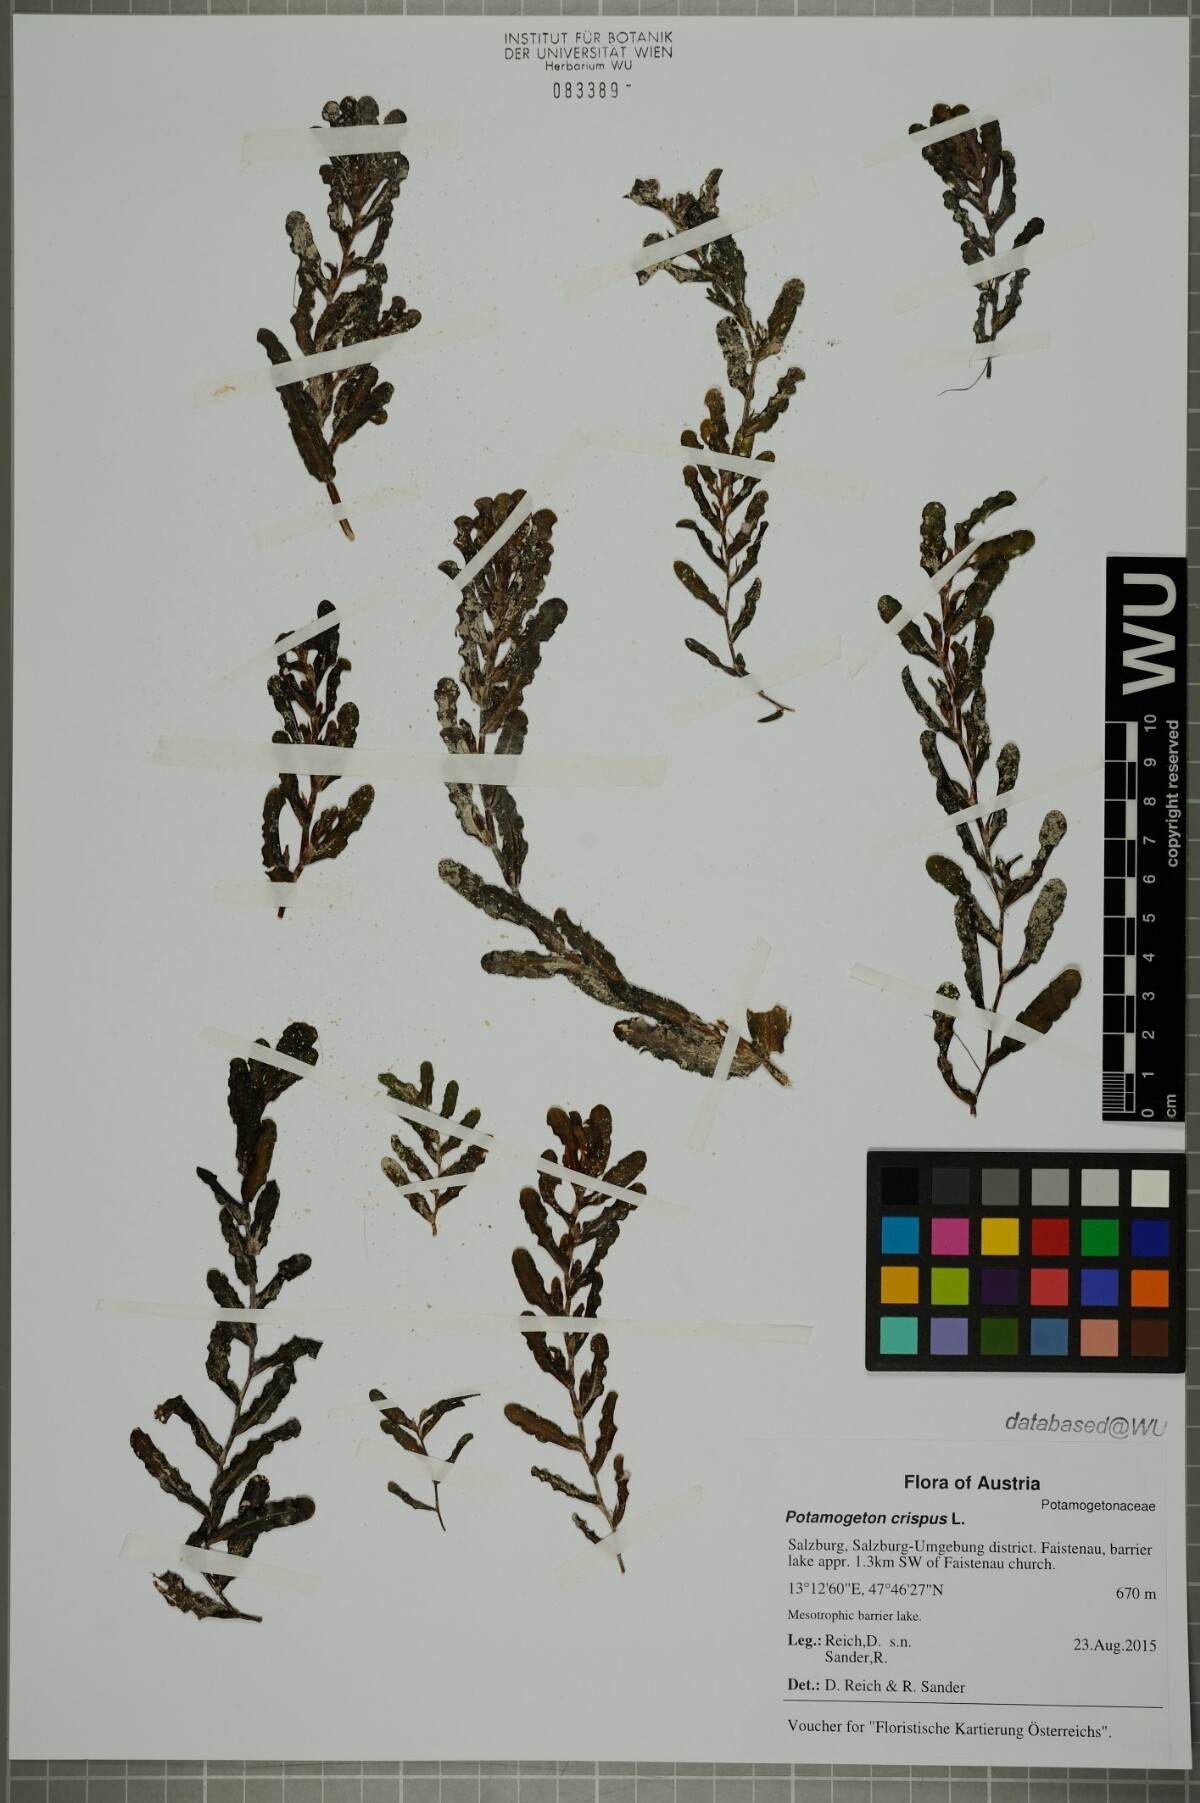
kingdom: Plantae
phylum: Tracheophyta
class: Liliopsida
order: Alismatales
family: Potamogetonaceae
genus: Potamogeton
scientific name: Potamogeton crispus
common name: Curled pondweed
